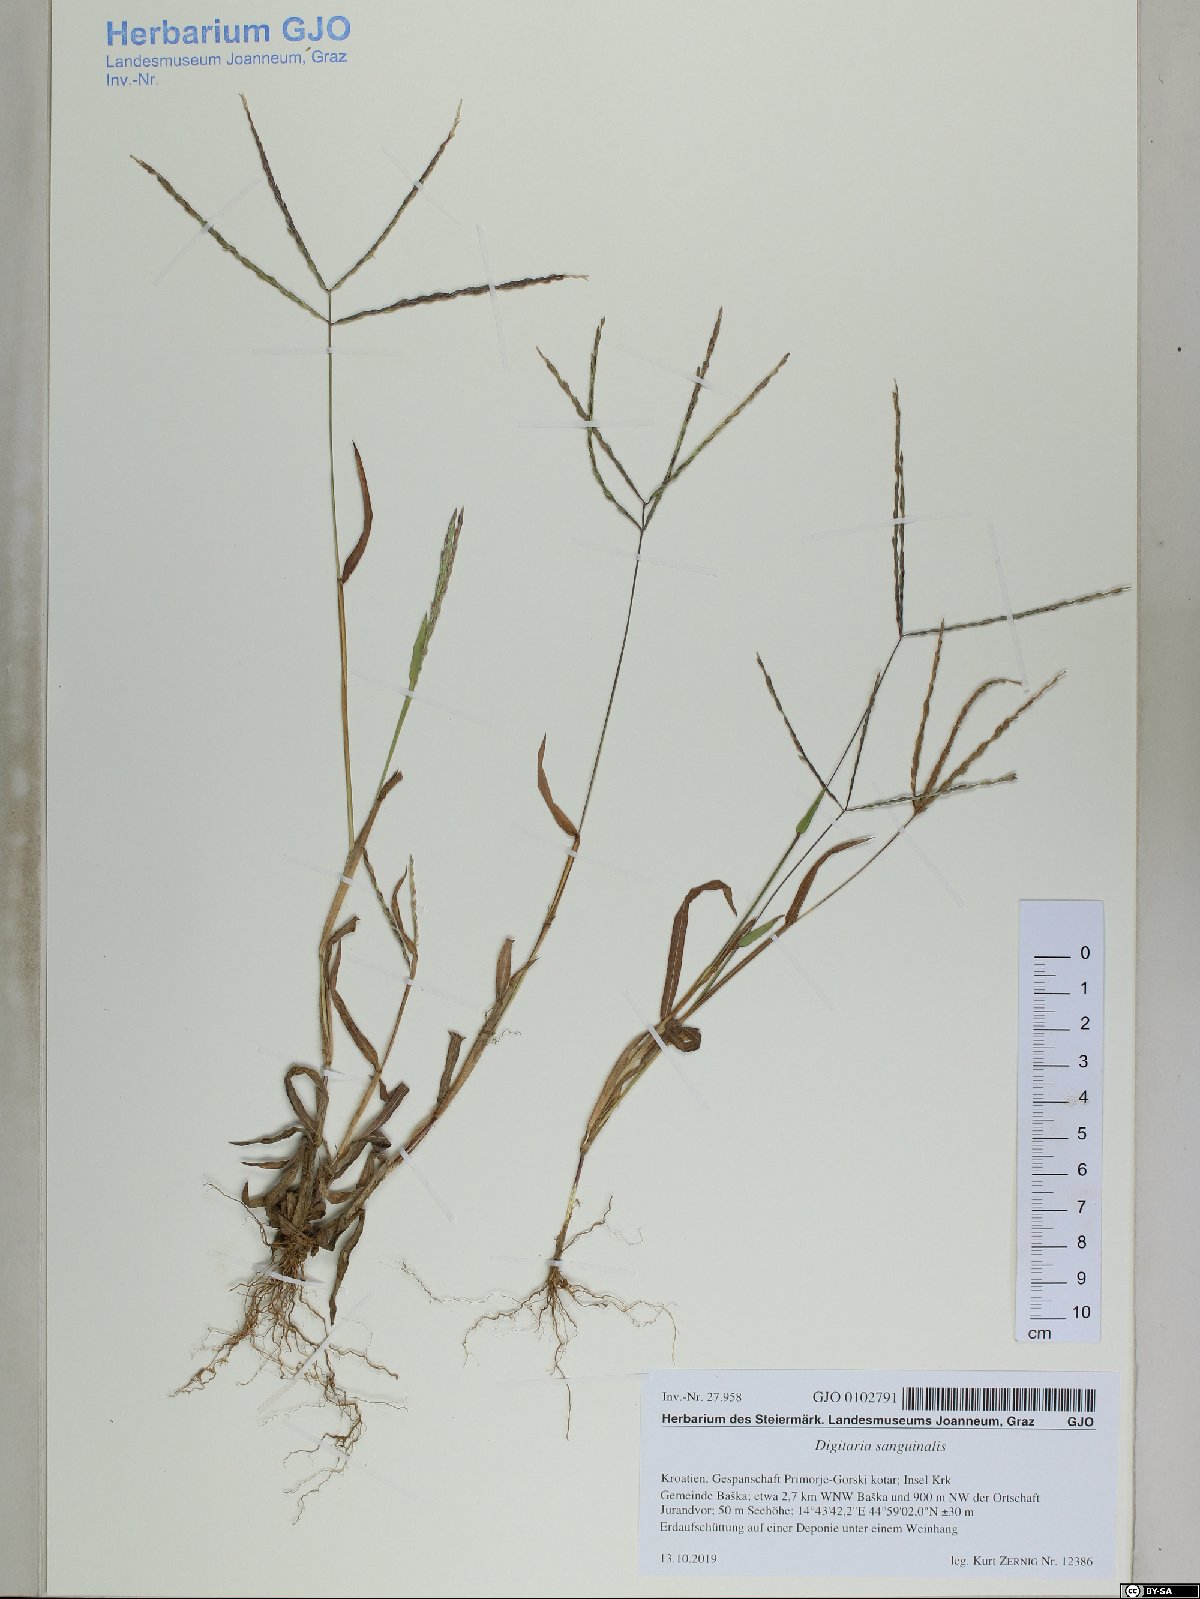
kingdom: Plantae
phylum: Tracheophyta
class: Liliopsida
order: Poales
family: Poaceae
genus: Digitaria
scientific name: Digitaria sanguinalis
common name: Hairy crabgrass
